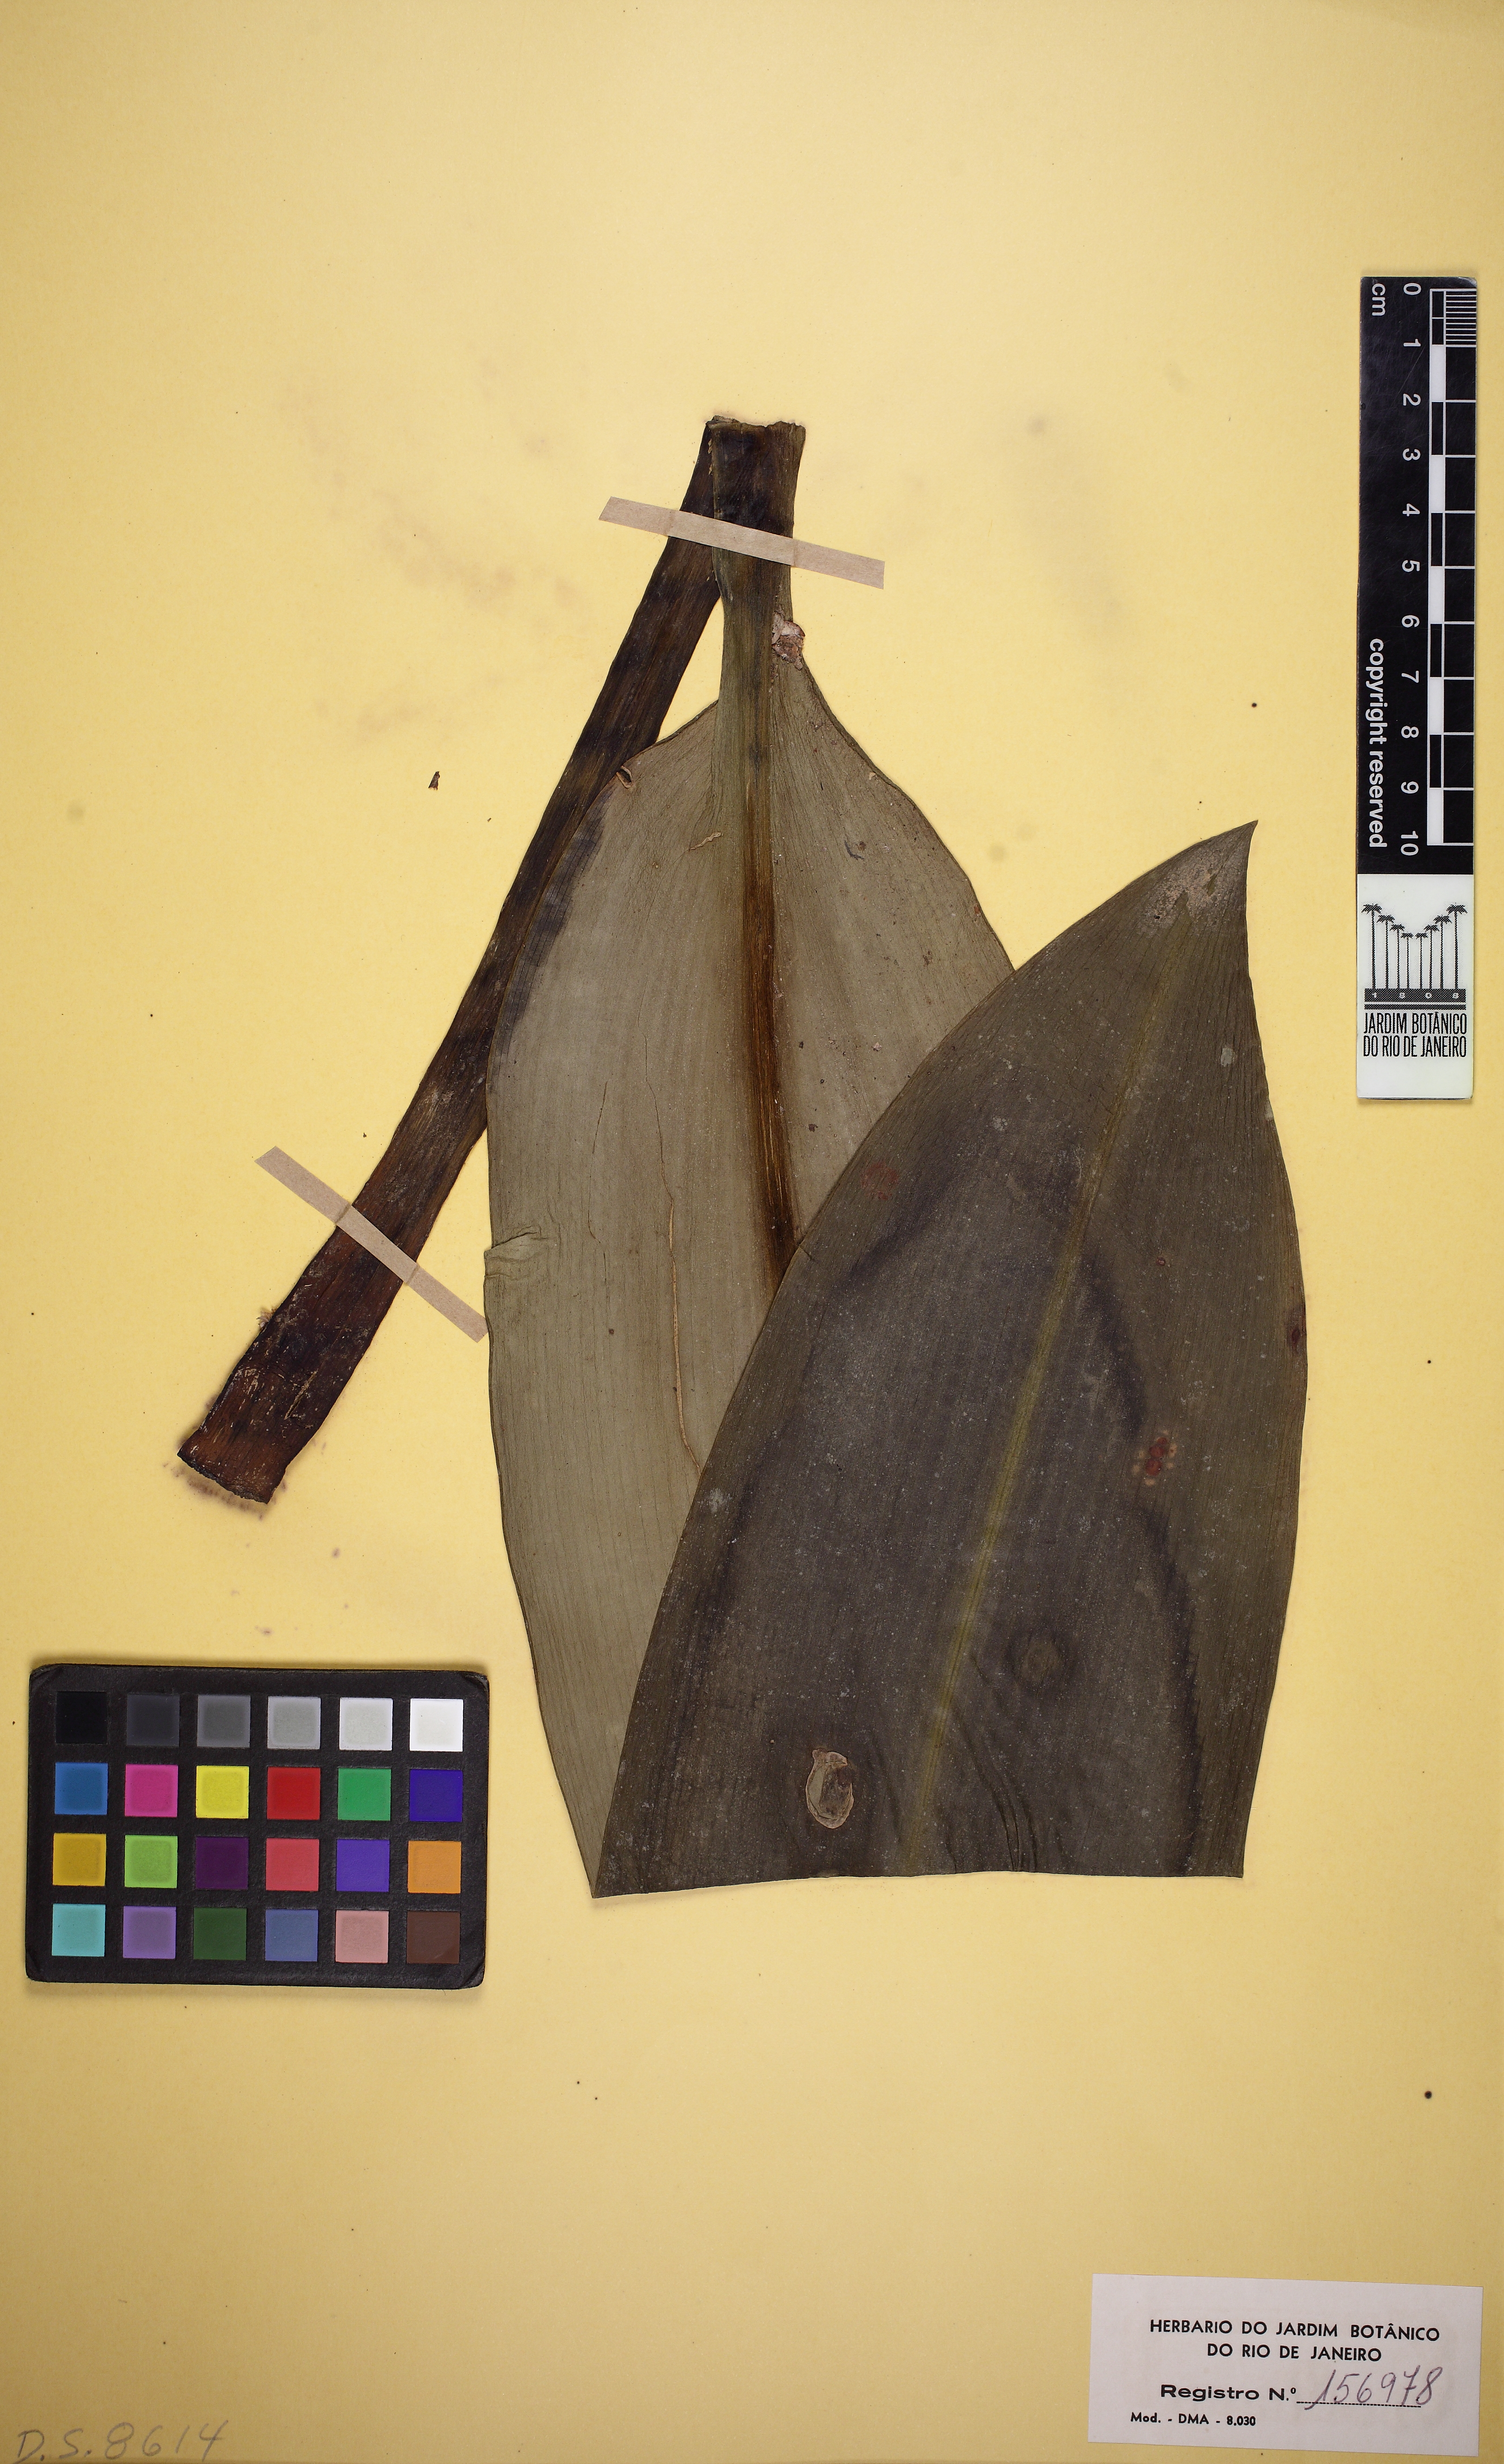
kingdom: Plantae
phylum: Tracheophyta
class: Liliopsida
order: Asparagales
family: Amaryllidaceae
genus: Griffinia
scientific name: Griffinia concinna
